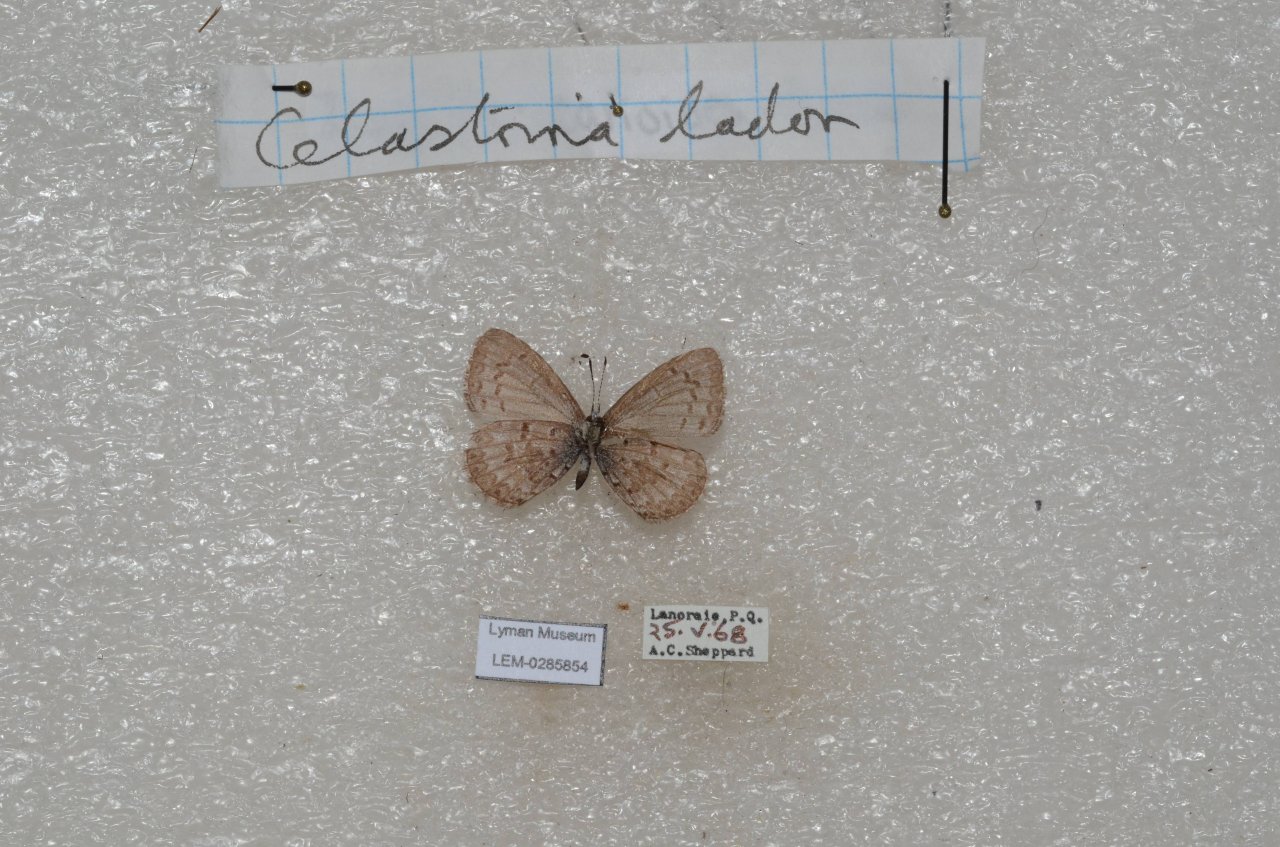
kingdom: Animalia
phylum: Arthropoda
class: Insecta
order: Lepidoptera
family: Lycaenidae
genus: Celastrina
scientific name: Celastrina lucia
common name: Northern Spring Azure
